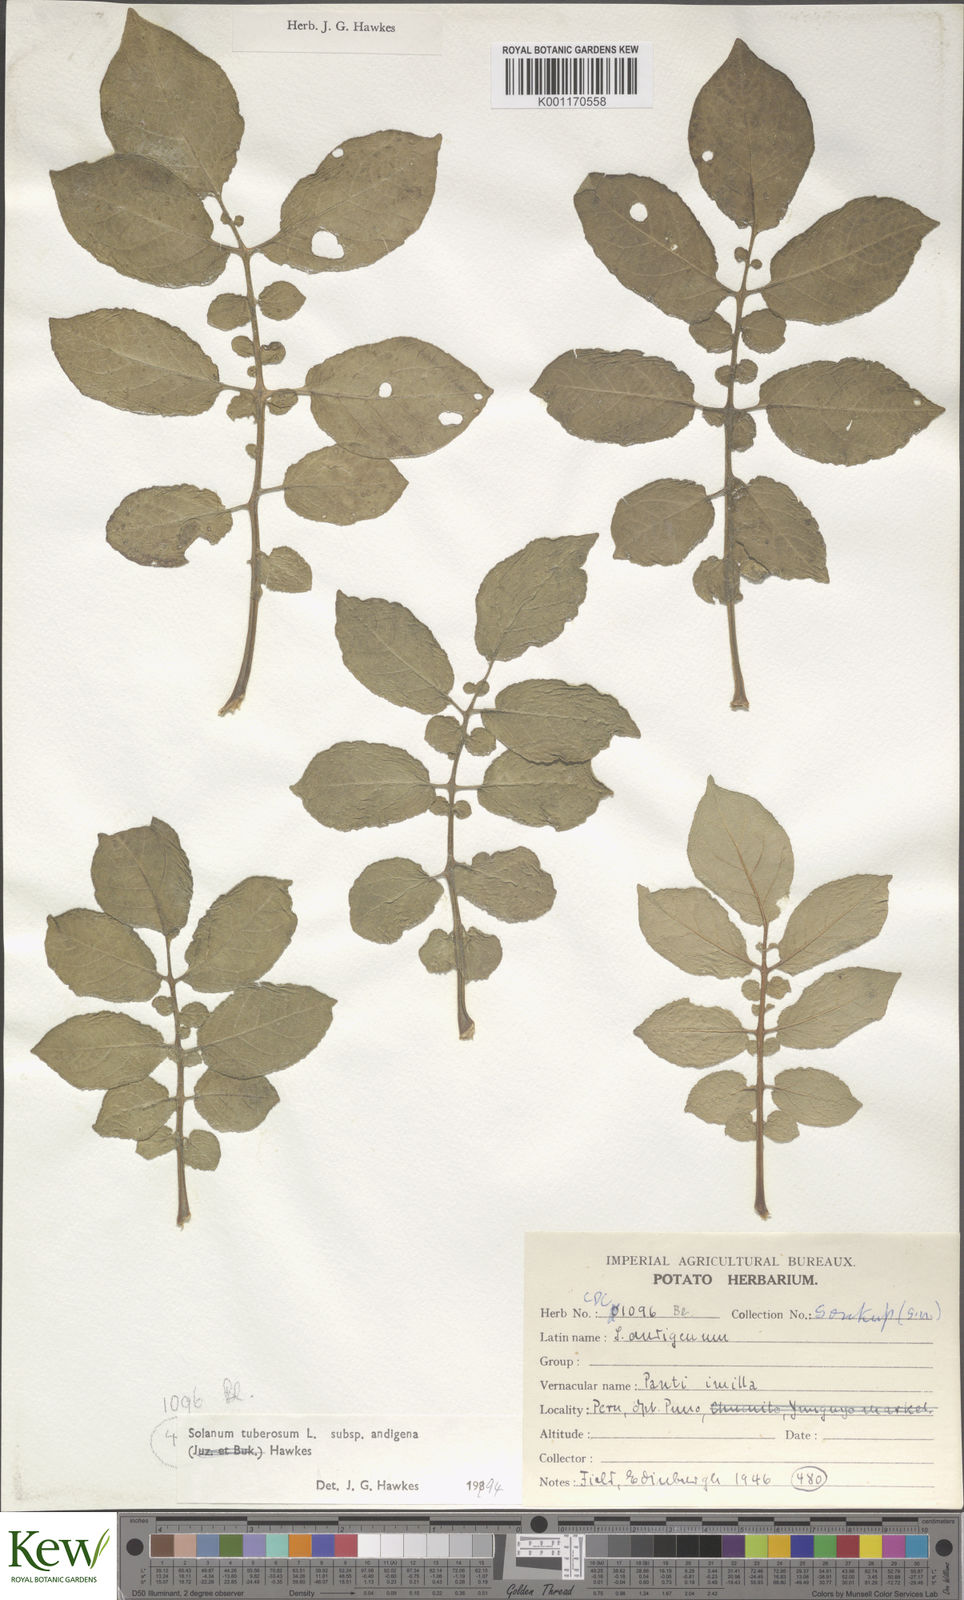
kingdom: Plantae
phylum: Tracheophyta
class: Magnoliopsida
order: Solanales
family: Solanaceae
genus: Solanum
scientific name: Solanum tuberosum
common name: Potato
